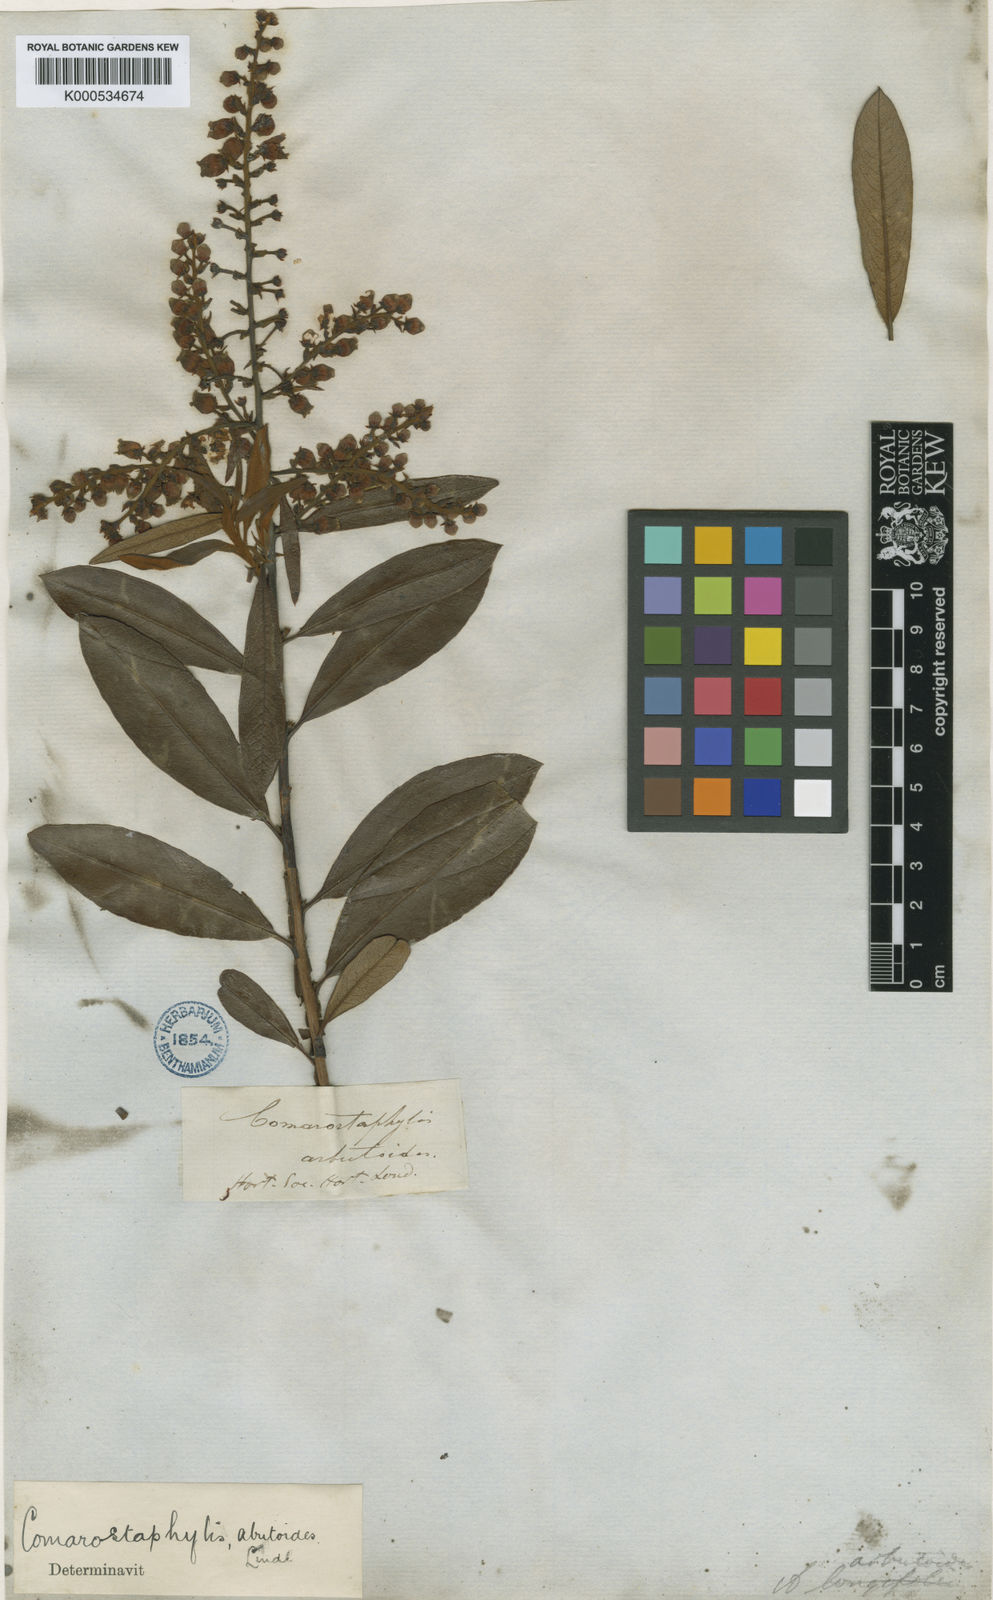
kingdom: Plantae
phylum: Tracheophyta
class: Magnoliopsida
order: Ericales
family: Ericaceae
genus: Comarostaphylis
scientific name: Comarostaphylis arbutoides
